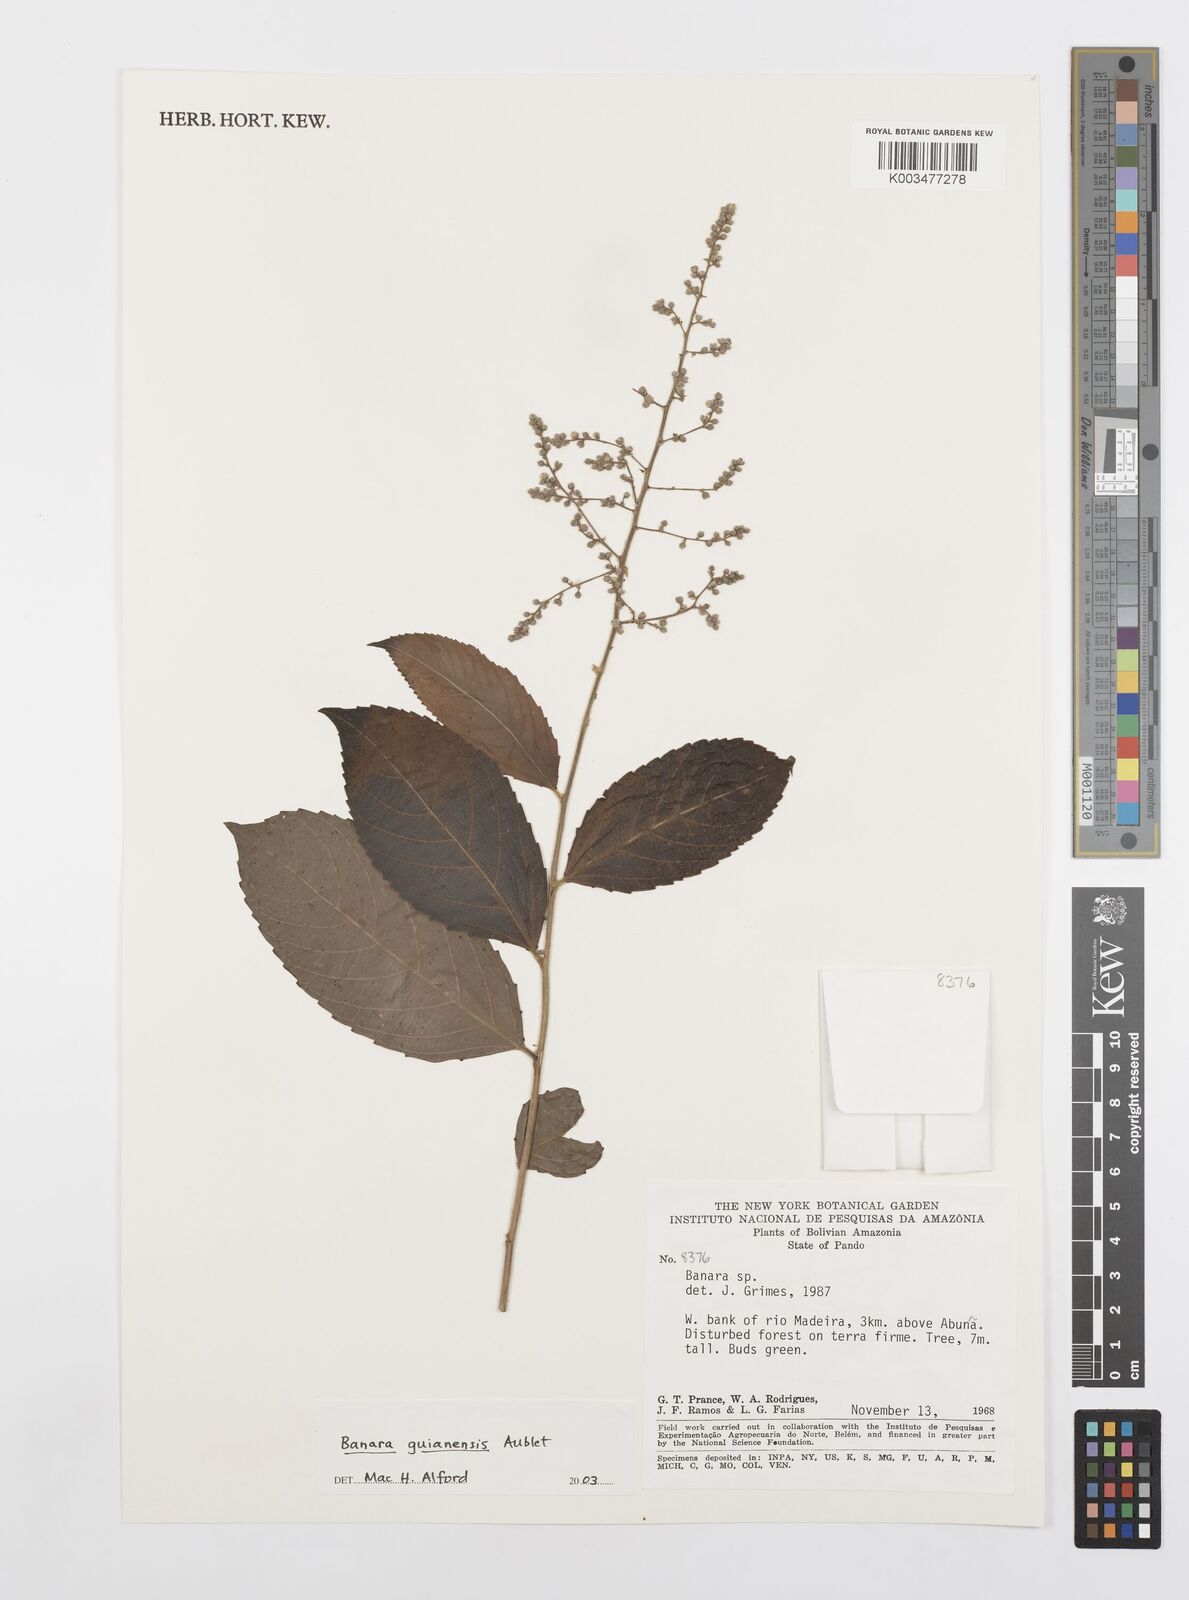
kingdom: Plantae
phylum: Tracheophyta
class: Magnoliopsida
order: Malpighiales
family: Salicaceae
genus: Banara
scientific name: Banara guianensis
